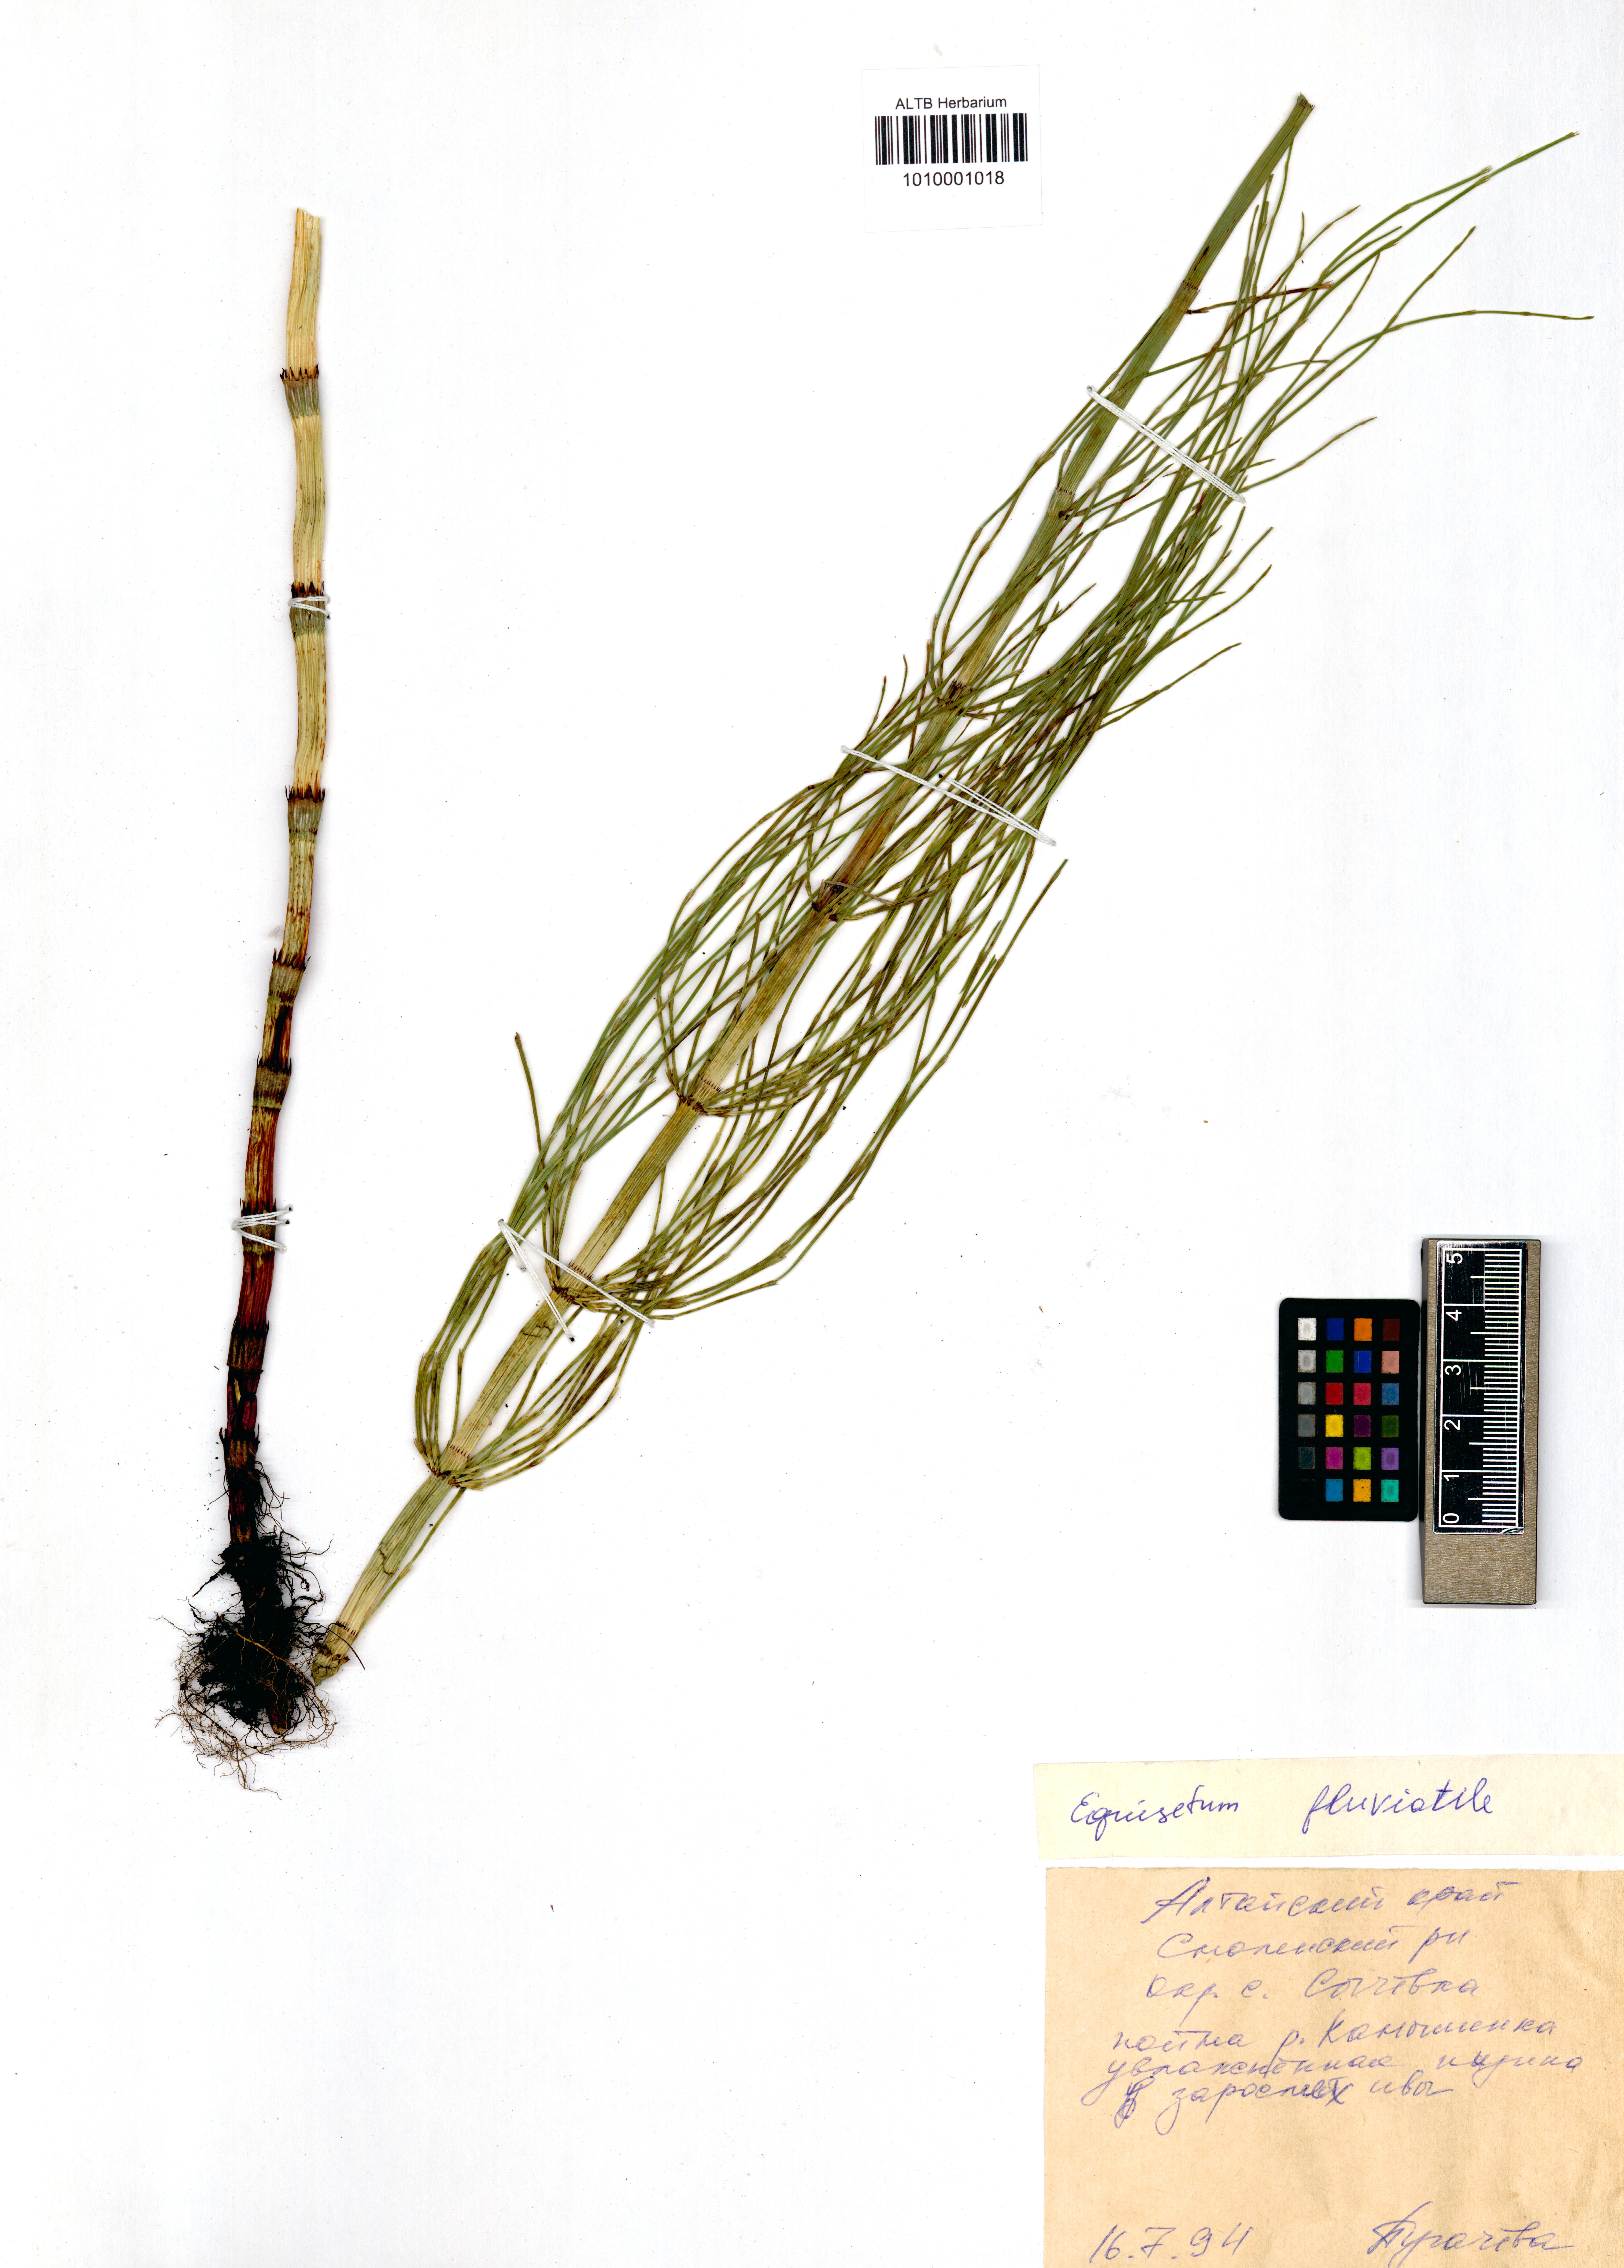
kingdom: Plantae
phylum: Tracheophyta
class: Polypodiopsida
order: Equisetales
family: Equisetaceae
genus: Equisetum
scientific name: Equisetum fluviatile
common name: Water horsetail
